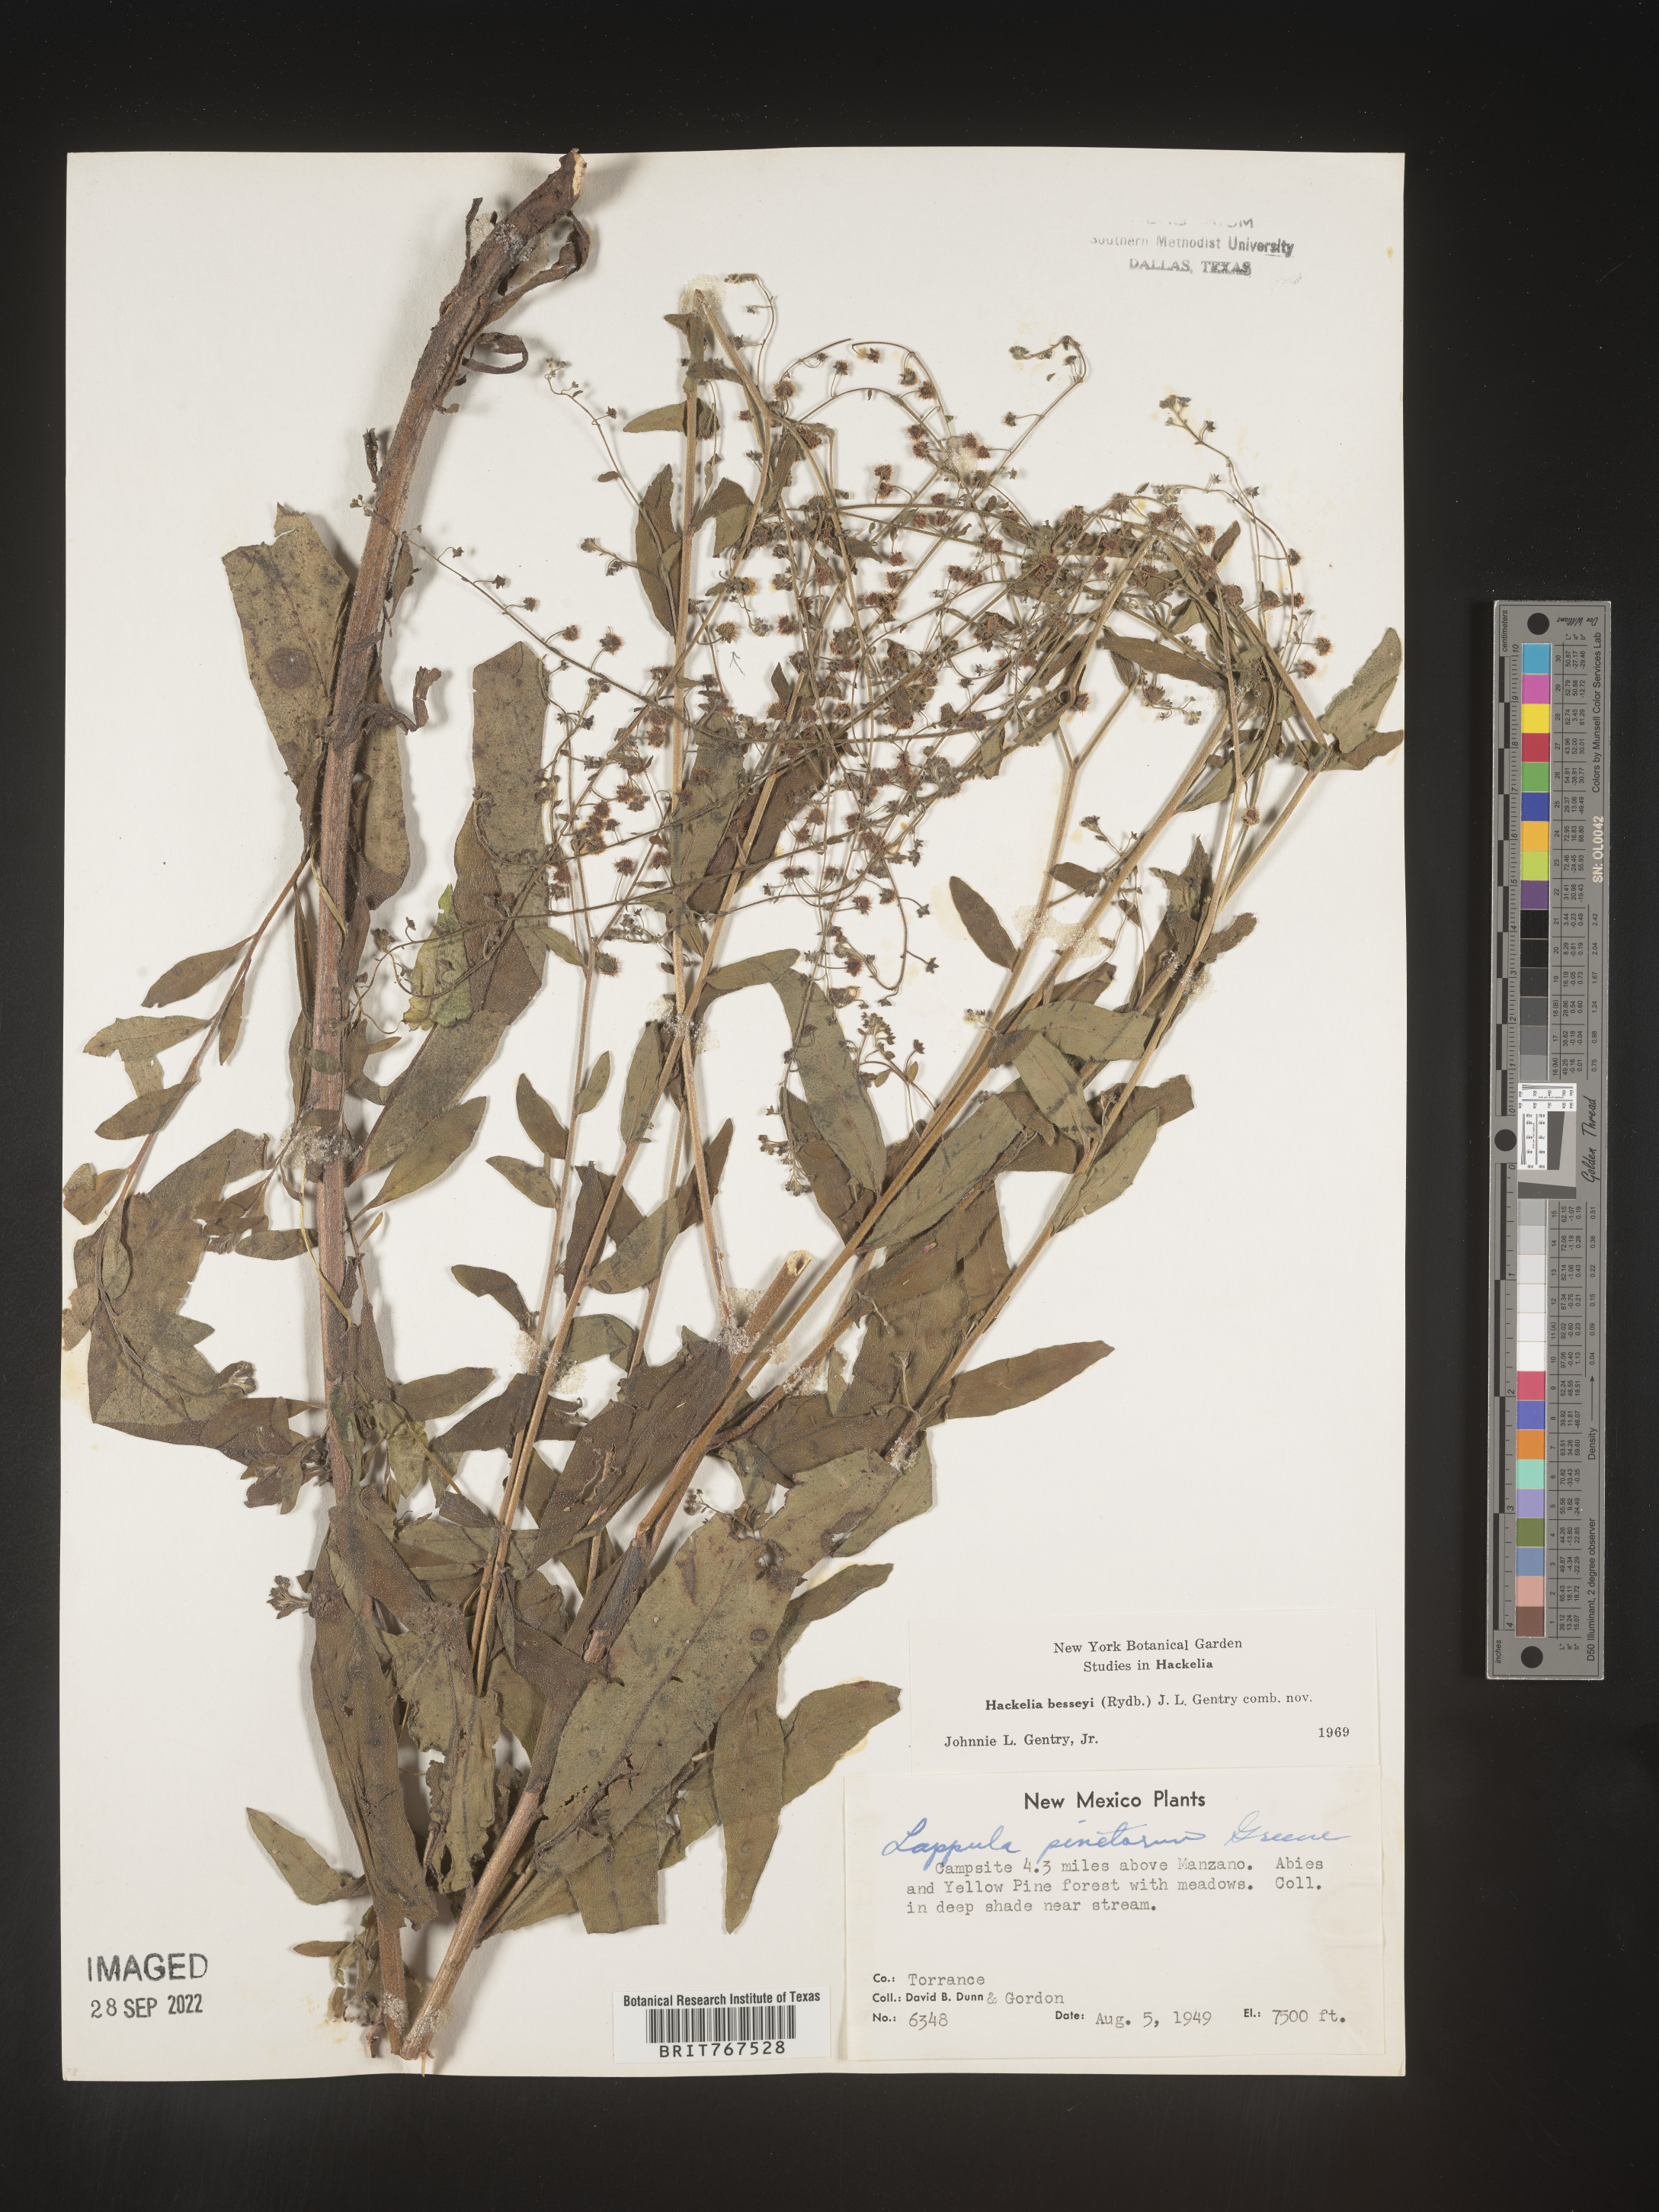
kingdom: Plantae
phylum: Tracheophyta
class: Magnoliopsida
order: Boraginales
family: Boraginaceae
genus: Hackelia
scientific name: Hackelia
